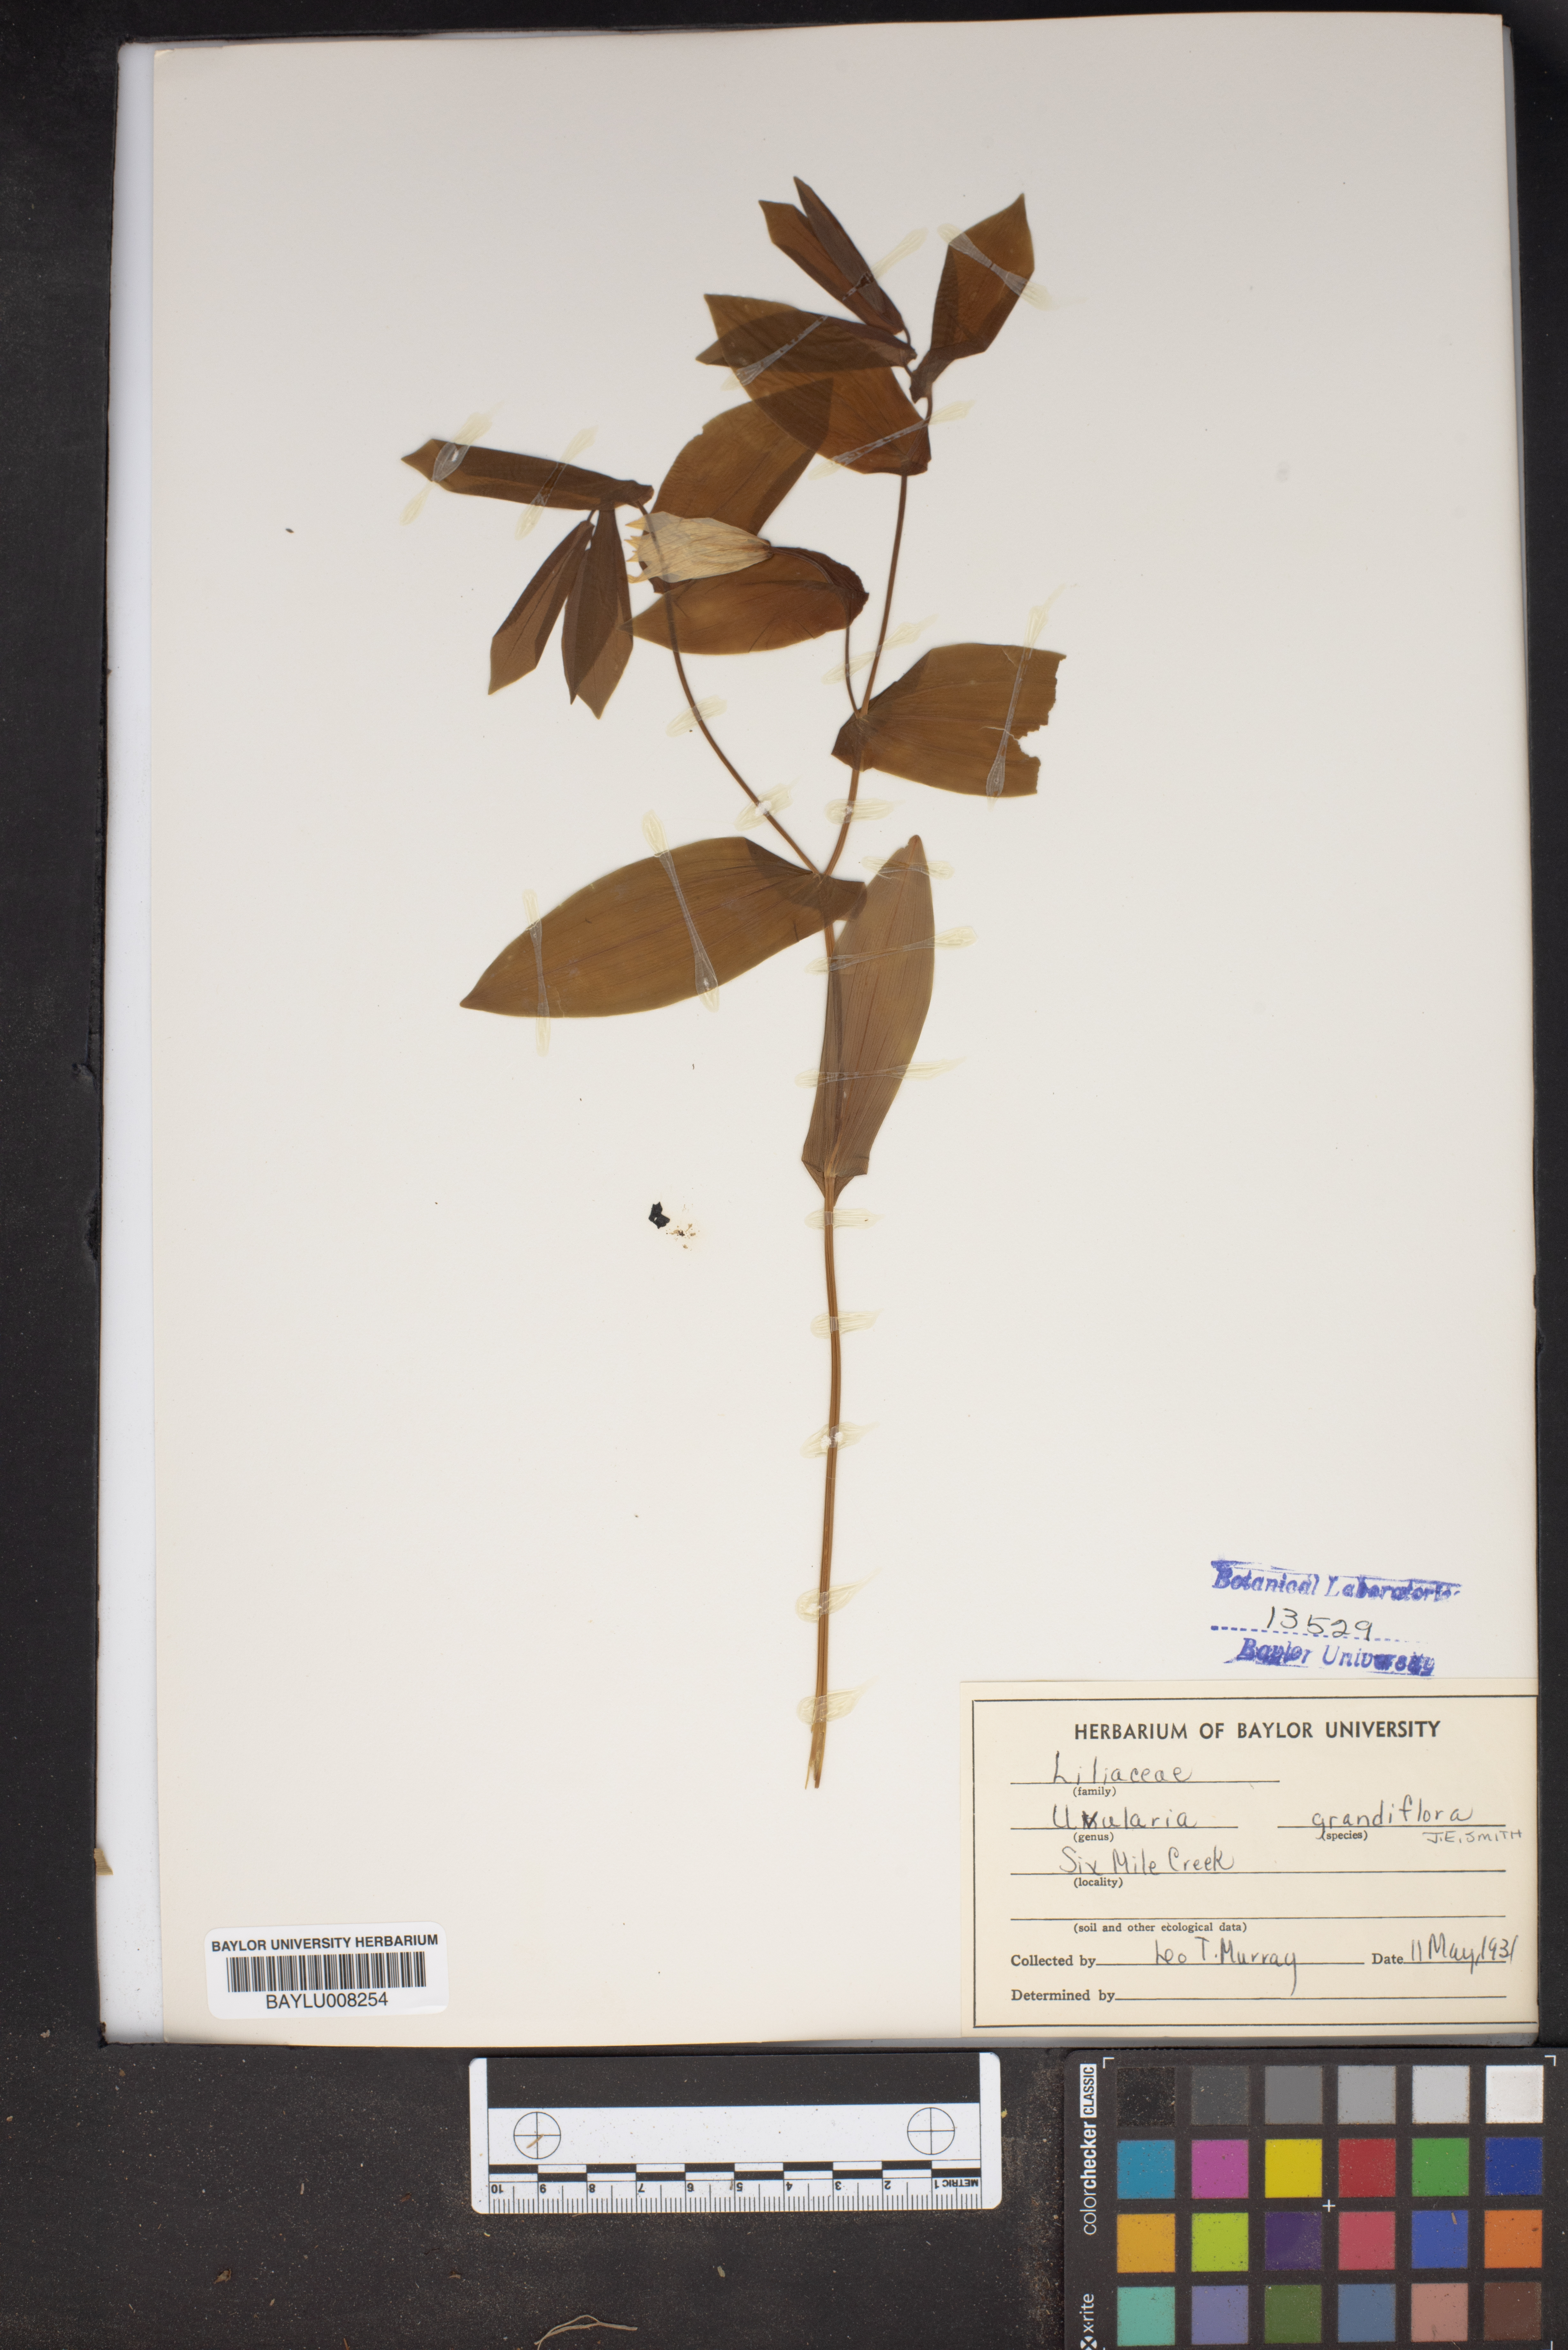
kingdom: Plantae
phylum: Tracheophyta
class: Liliopsida
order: Liliales
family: Colchicaceae
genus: Uvularia
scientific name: Uvularia grandiflora
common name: Bellwort
